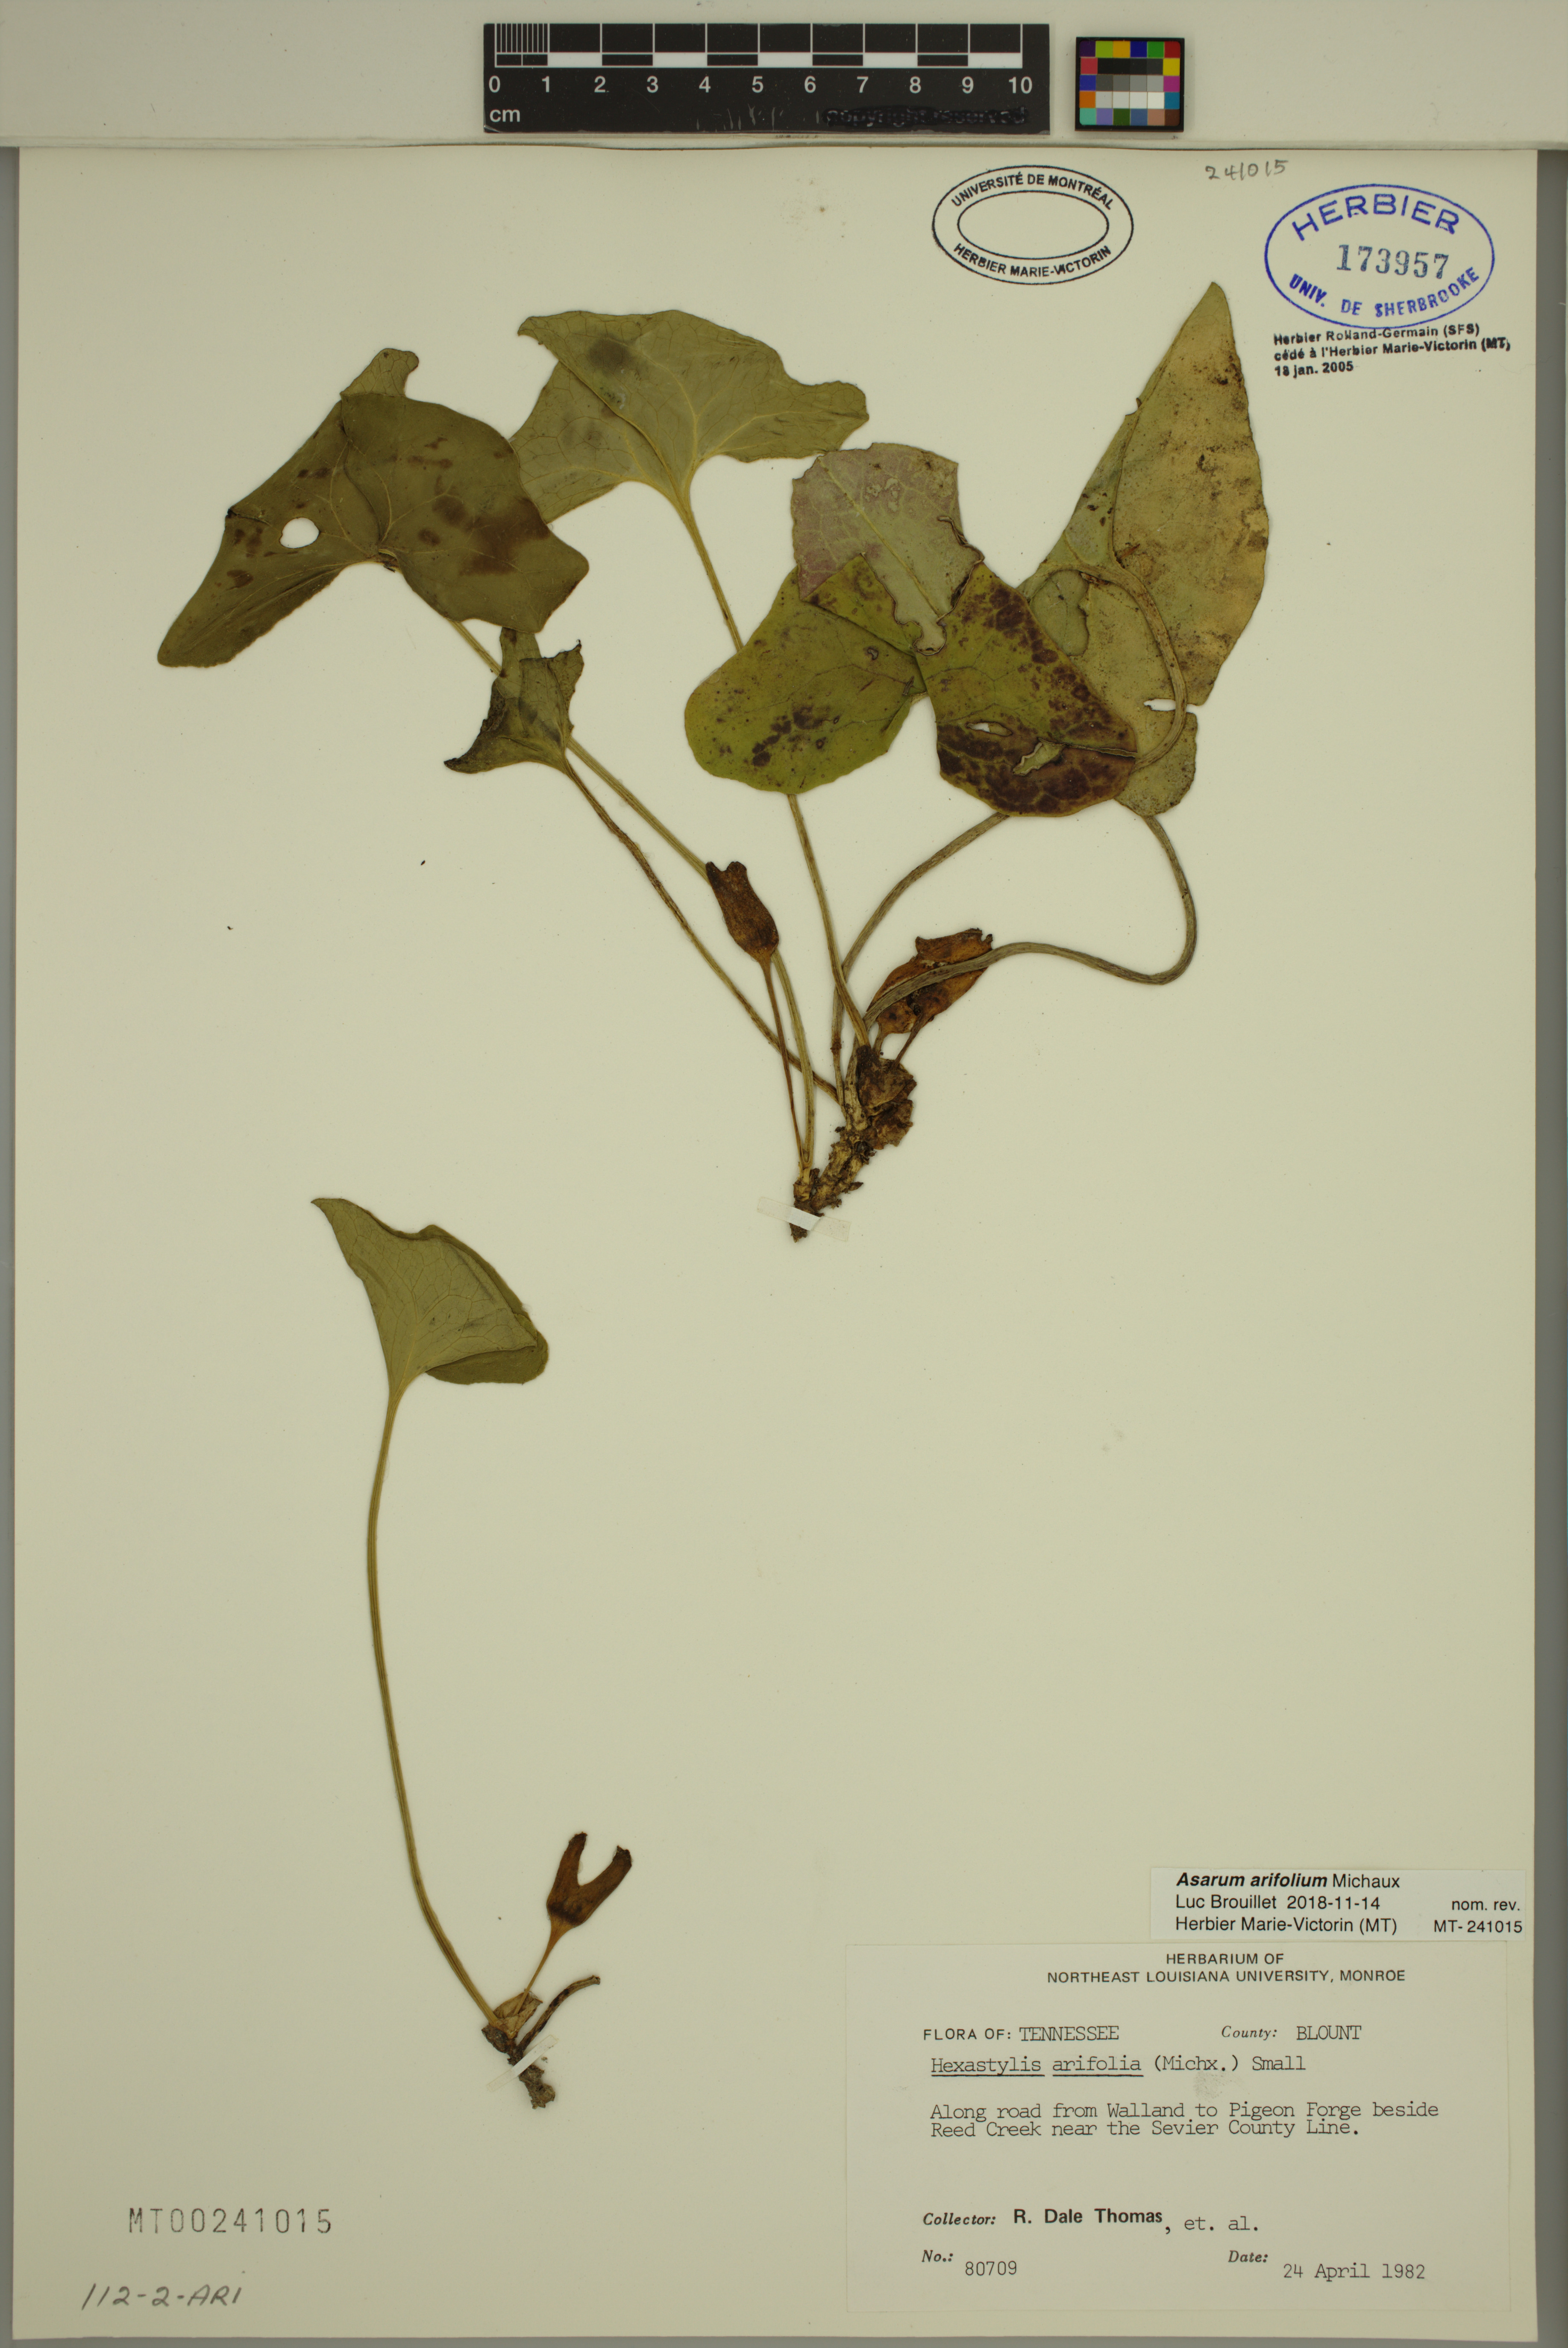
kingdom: Plantae
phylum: Tracheophyta
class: Magnoliopsida
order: Piperales
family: Aristolochiaceae
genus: Hexastylis
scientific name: Hexastylis arifolia
